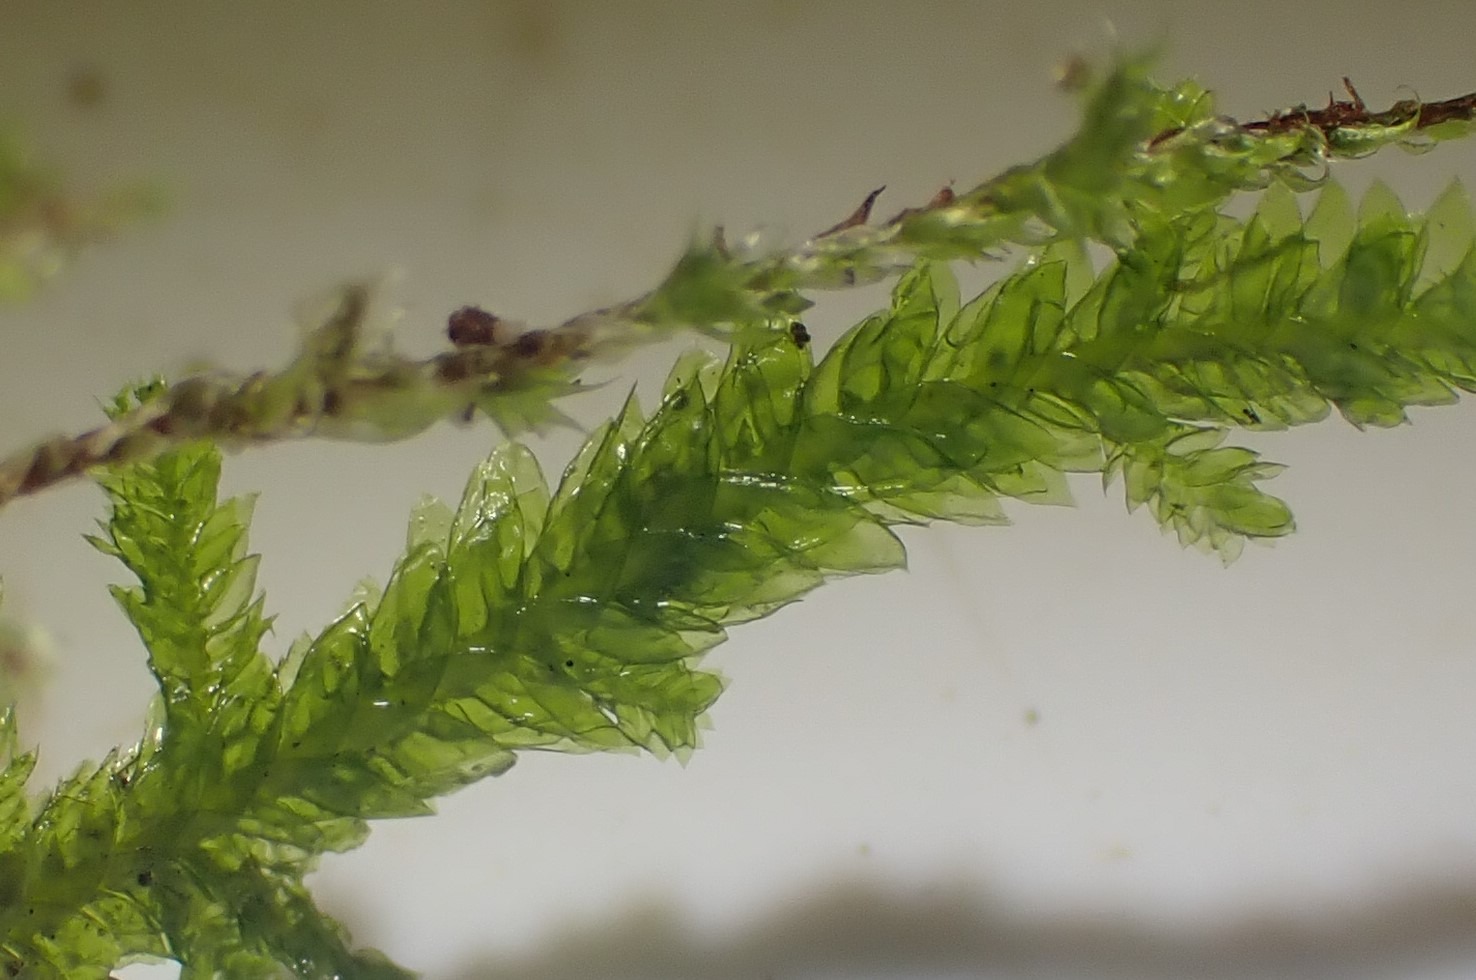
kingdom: Plantae
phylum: Bryophyta
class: Bryopsida
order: Hypnales
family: Neckeraceae
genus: Neckera
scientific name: Neckera pumila
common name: Lav fladmos
